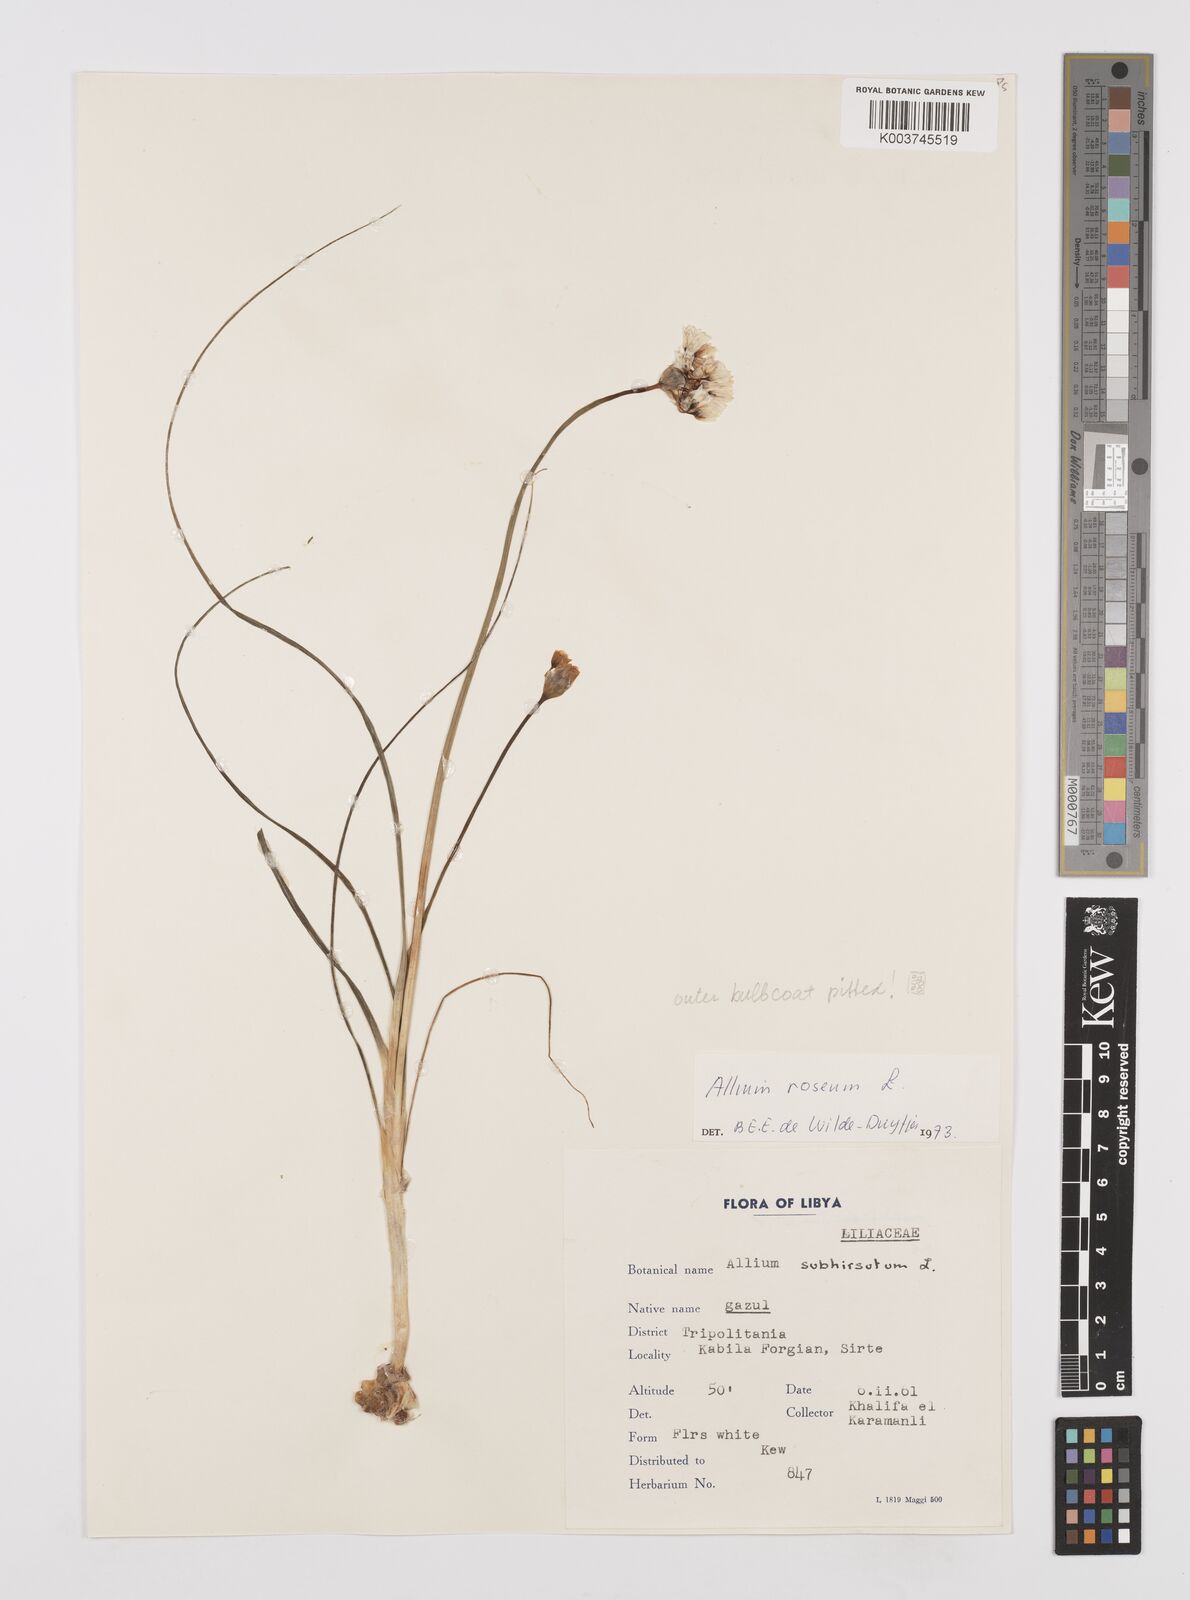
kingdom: Plantae
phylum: Tracheophyta
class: Liliopsida
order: Asparagales
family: Amaryllidaceae
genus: Allium
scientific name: Allium roseum
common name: Rosy garlic
